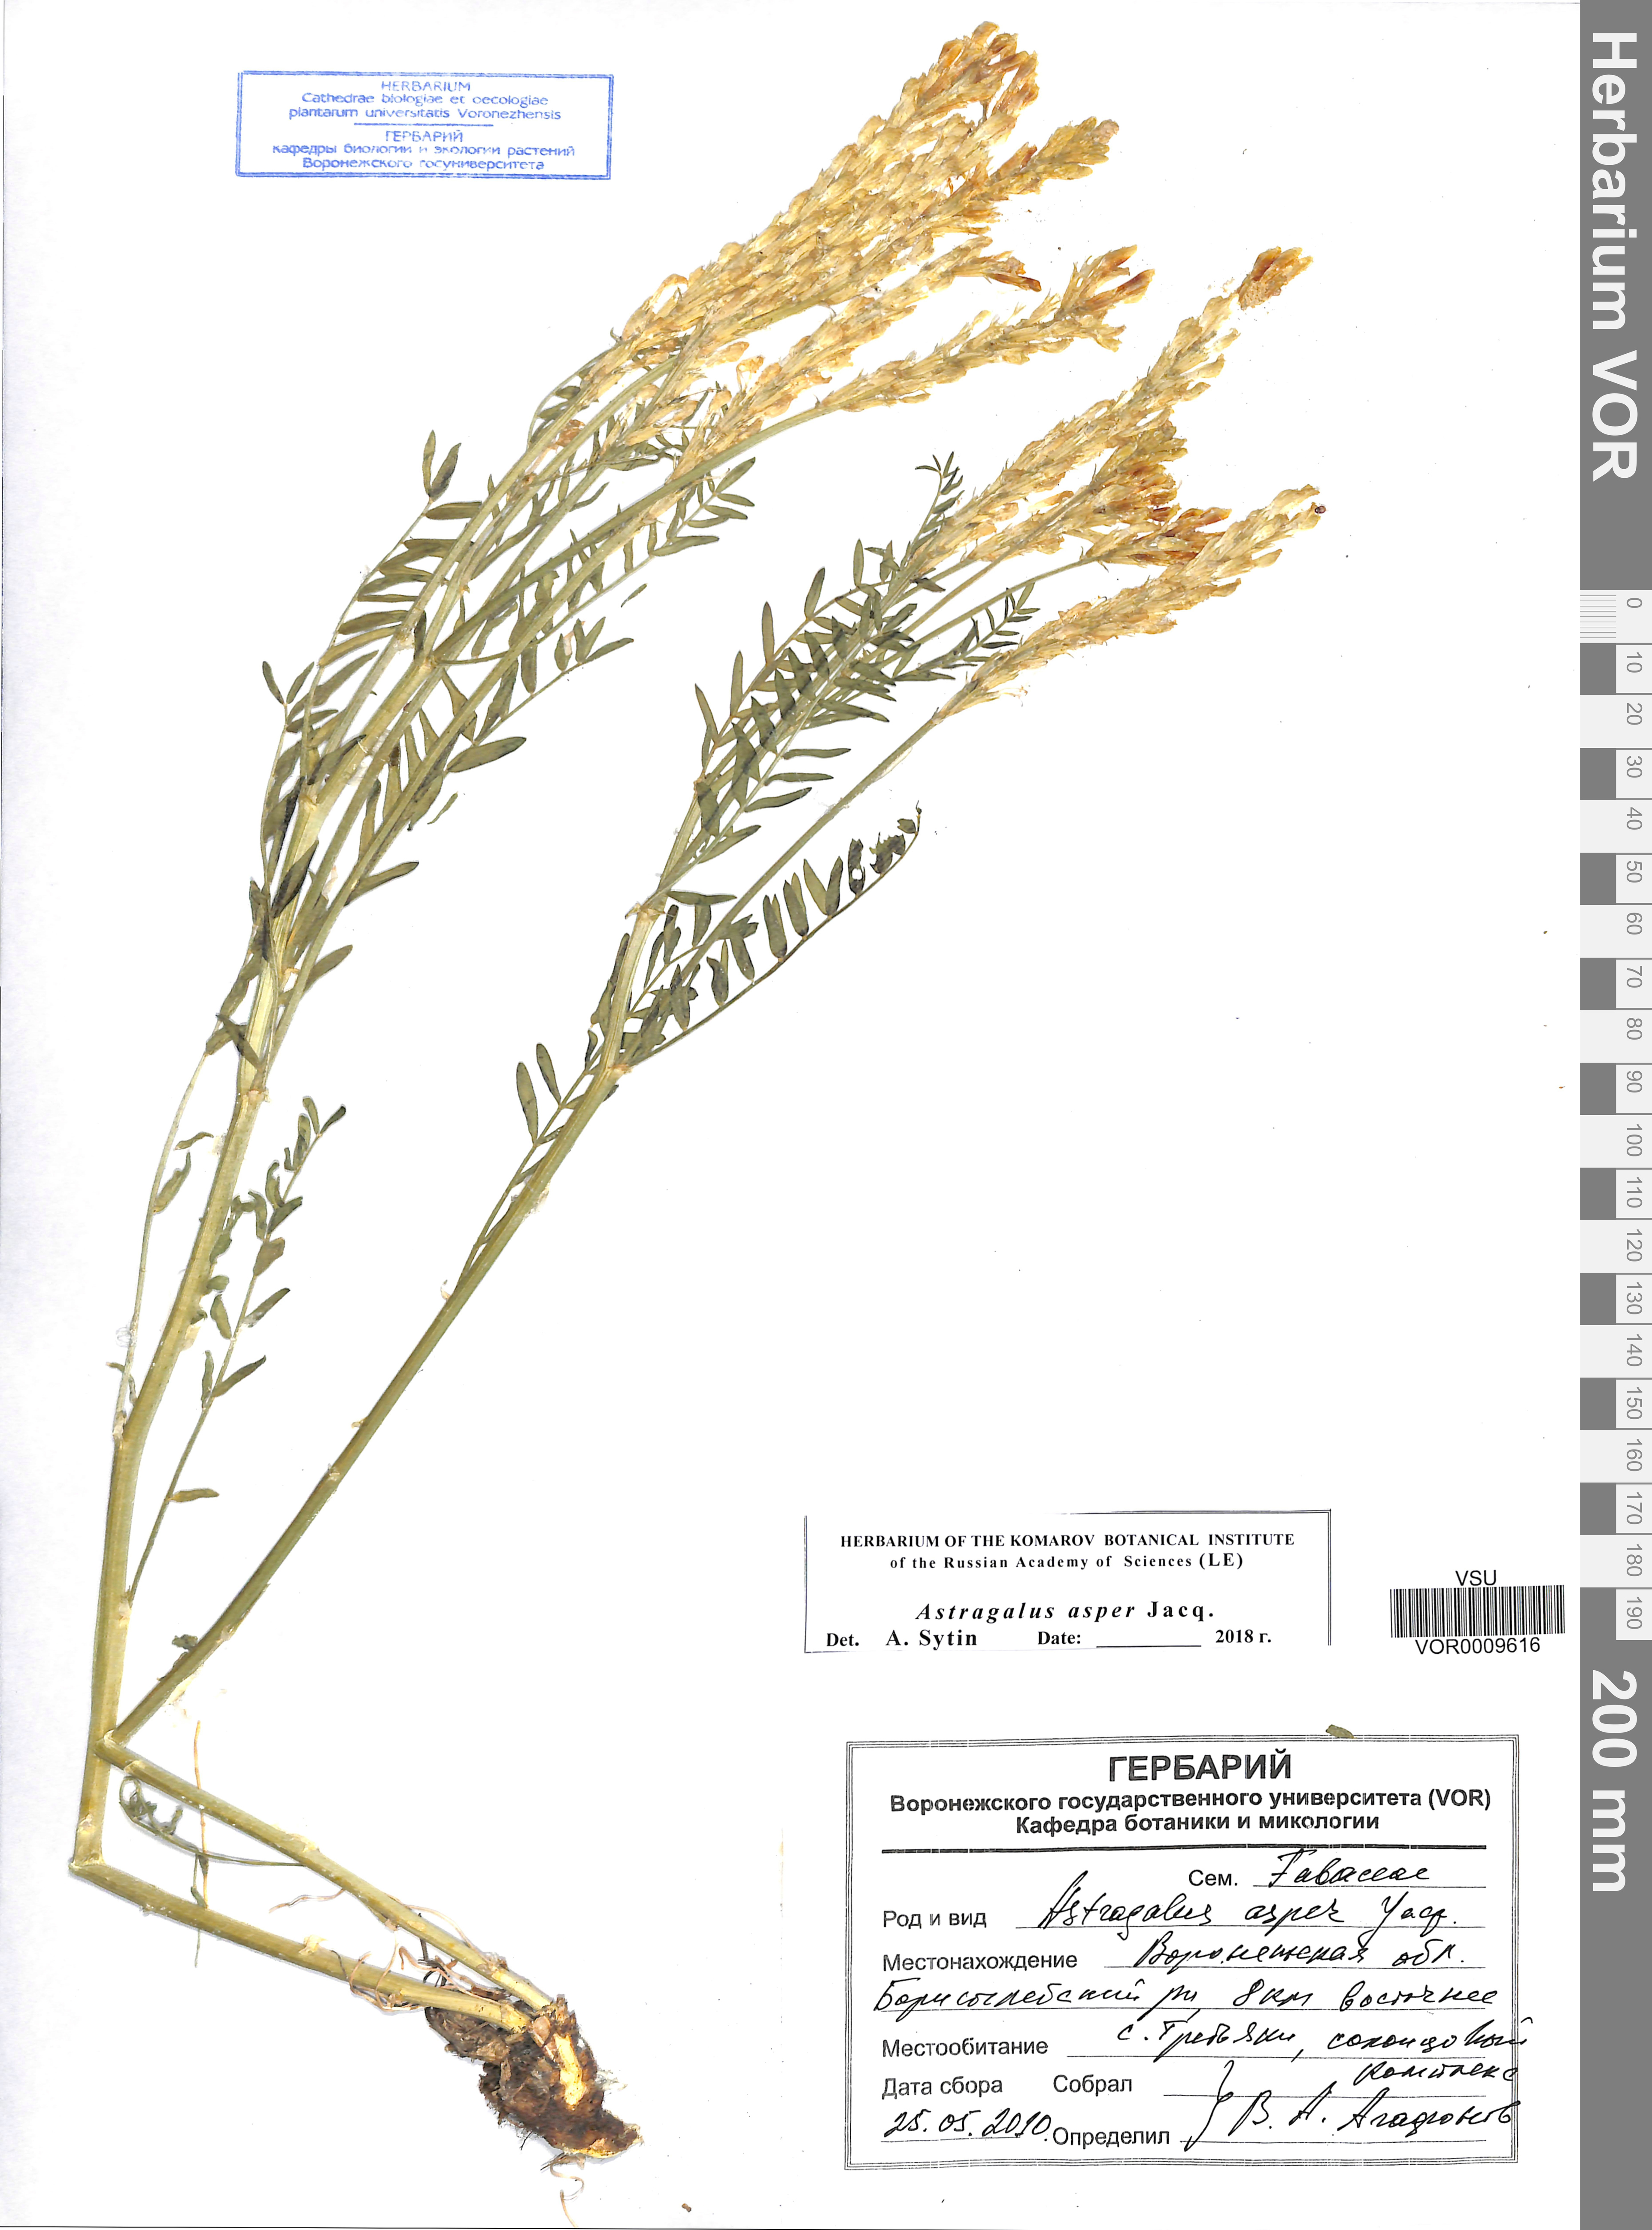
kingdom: Plantae
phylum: Tracheophyta
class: Magnoliopsida
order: Fabales
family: Fabaceae
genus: Astragalus
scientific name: Astragalus asper
